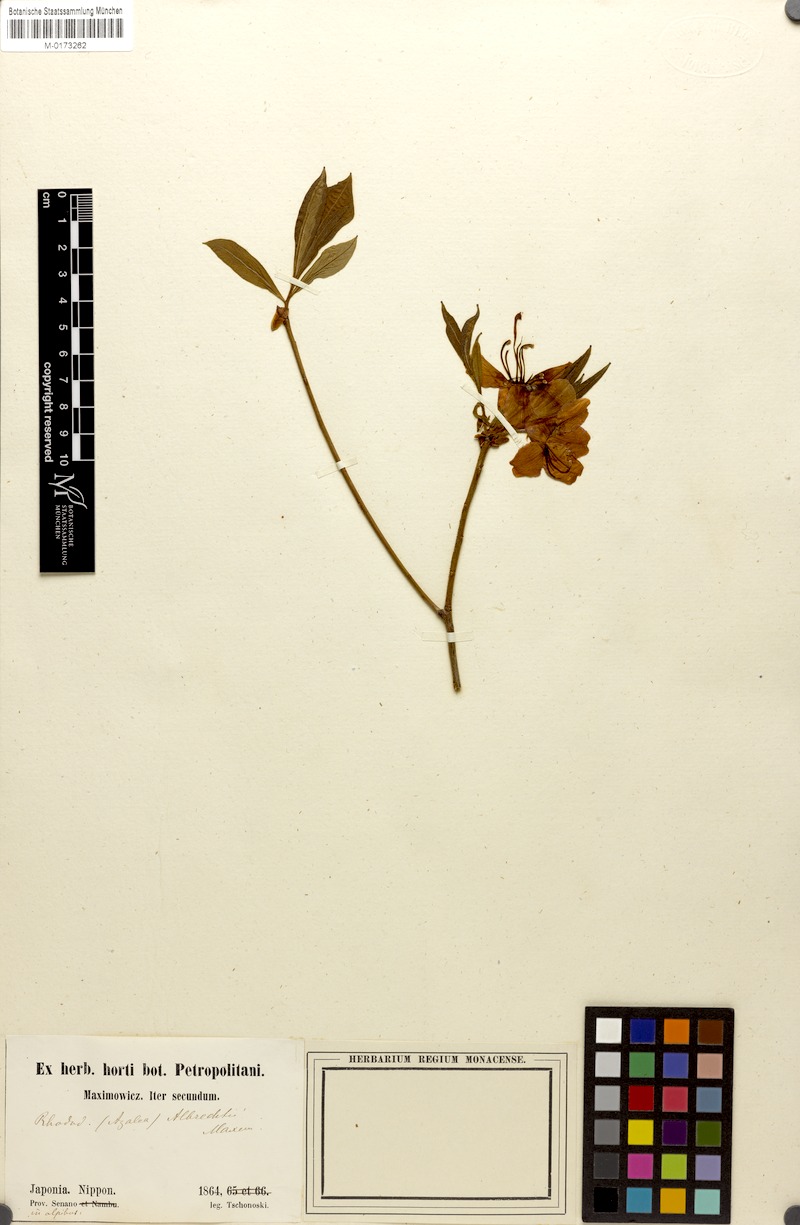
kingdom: Plantae
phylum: Tracheophyta
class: Magnoliopsida
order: Ericales
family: Ericaceae
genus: Rhododendron
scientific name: Rhododendron albrechtii
